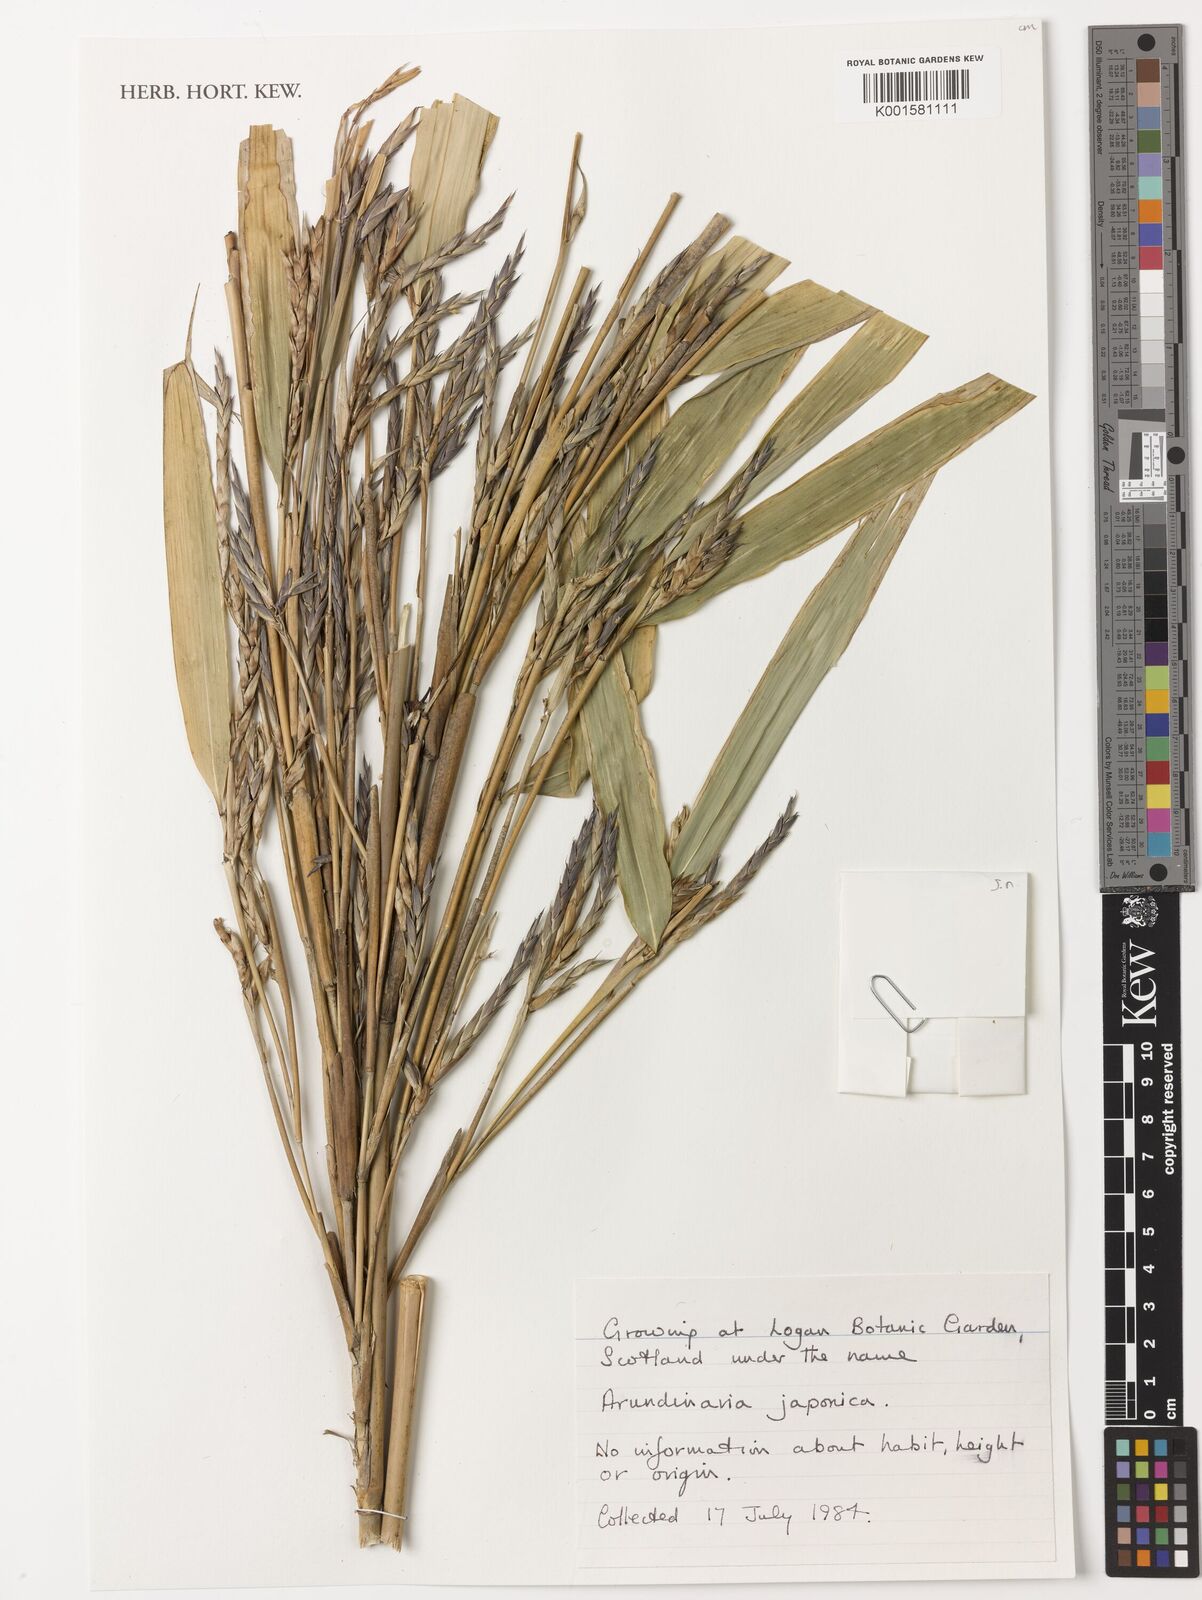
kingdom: Plantae
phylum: Tracheophyta
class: Liliopsida
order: Poales
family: Poaceae
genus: Pseudosasa
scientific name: Pseudosasa japonica
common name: Arrow bamboo
